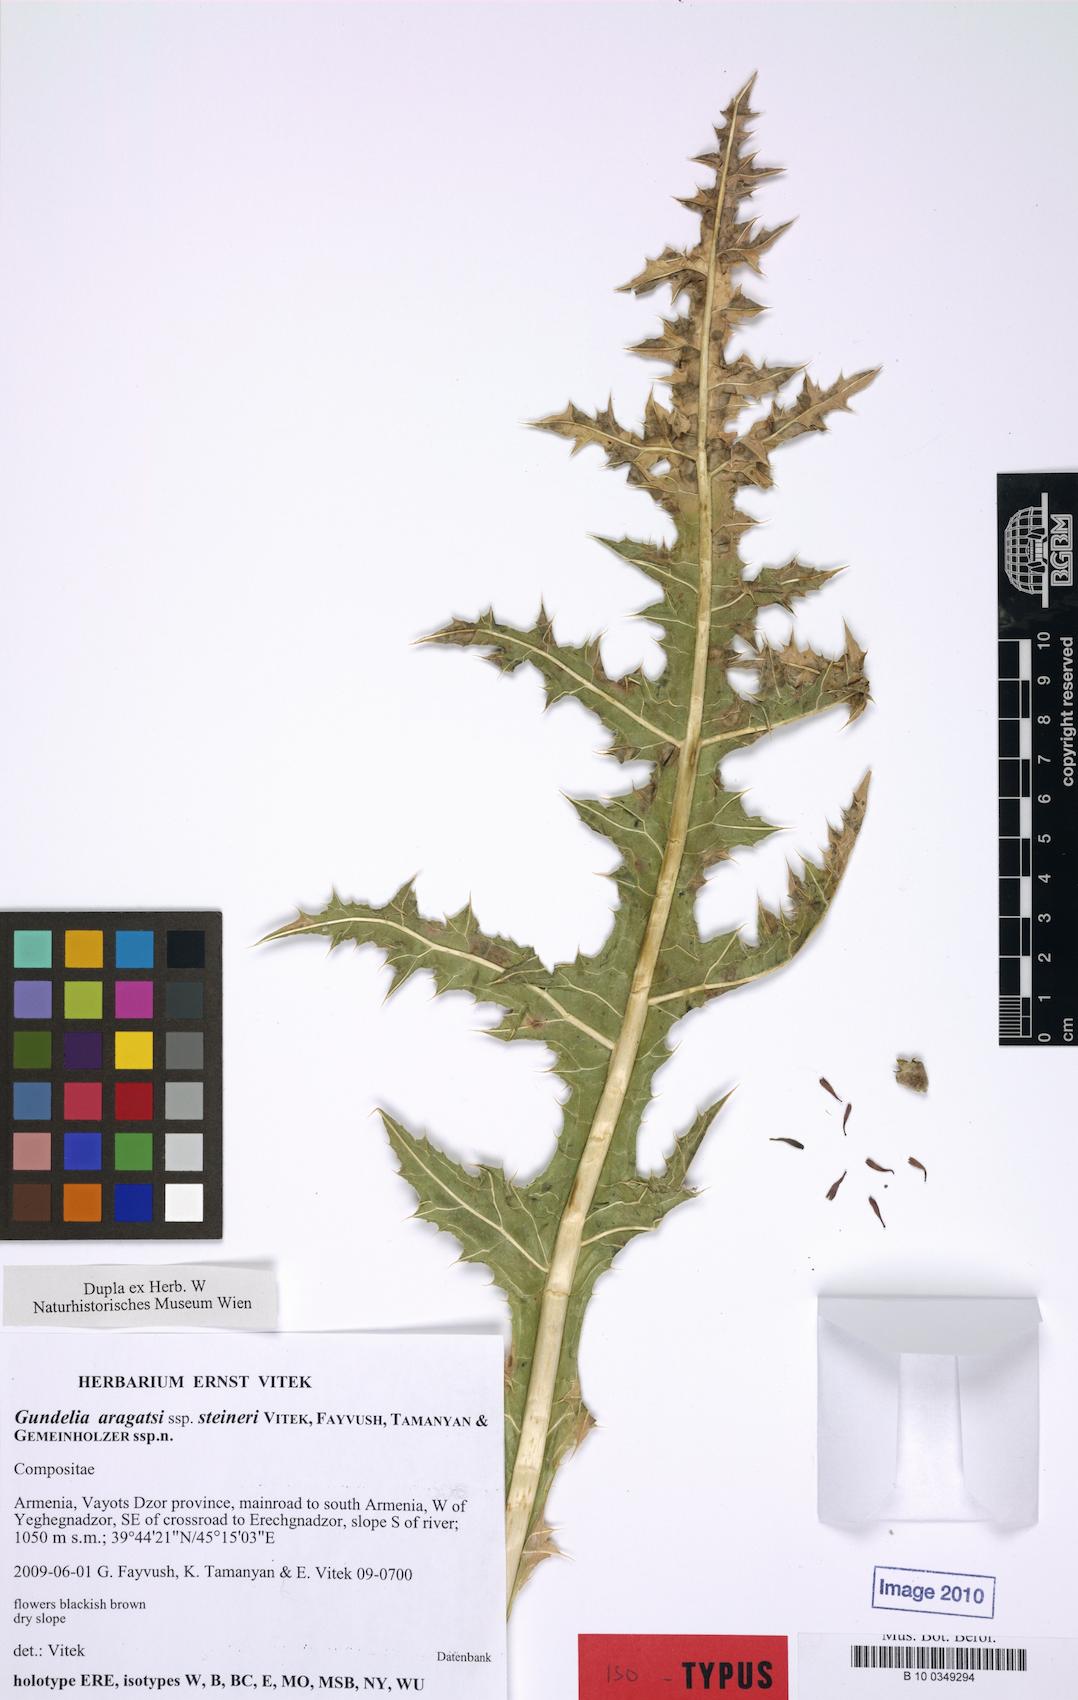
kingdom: Plantae
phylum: Tracheophyta
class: Magnoliopsida
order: Asterales
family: Asteraceae
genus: Gundelia
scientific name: Gundelia aragatsi
